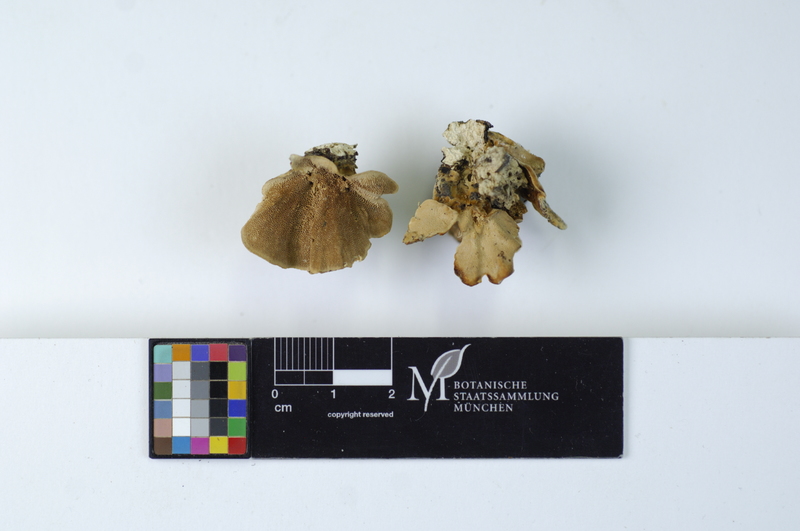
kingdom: Plantae
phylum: Tracheophyta
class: Magnoliopsida
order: Lamiales
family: Oleaceae
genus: Fraxinus
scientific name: Fraxinus
